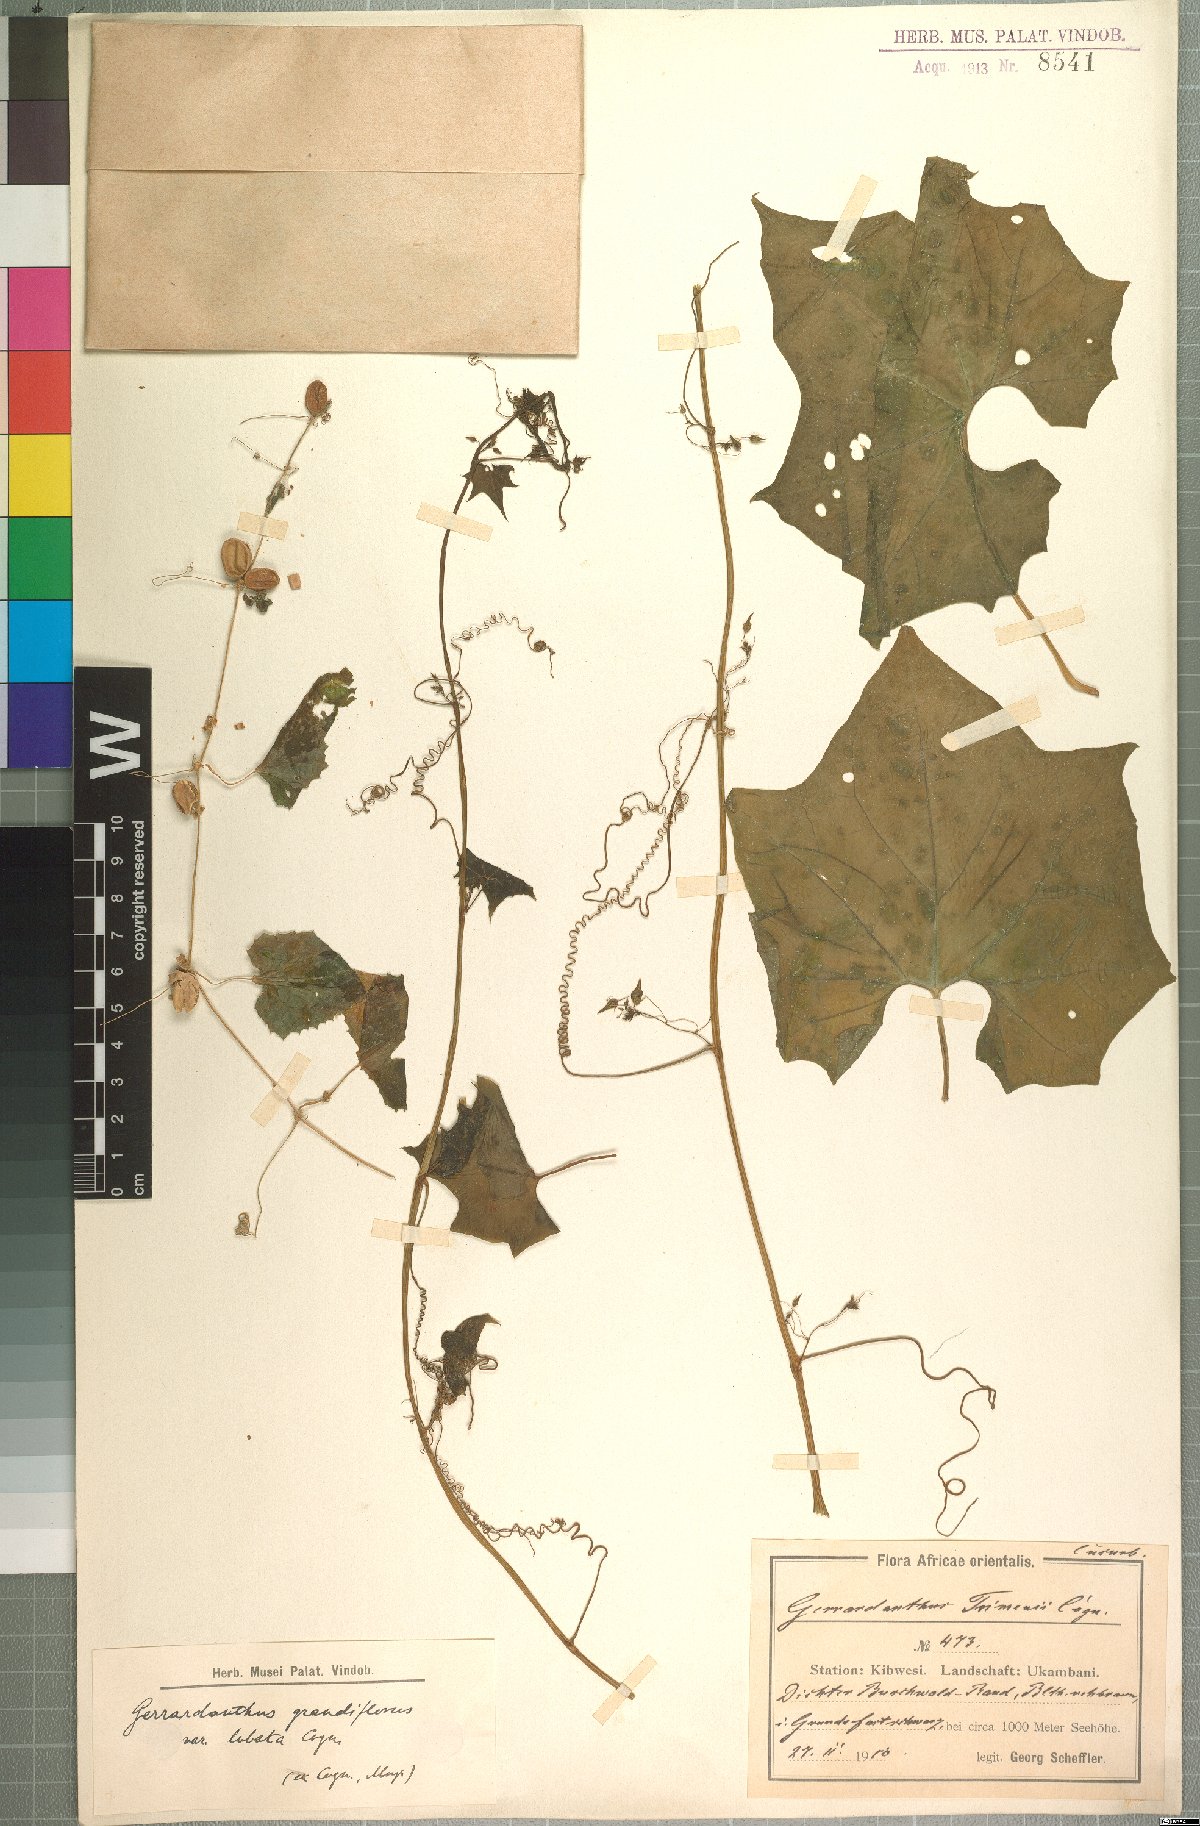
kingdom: Plantae
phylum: Tracheophyta
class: Magnoliopsida
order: Cucurbitales
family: Cucurbitaceae
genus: Gerrardanthus
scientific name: Gerrardanthus lobatus
